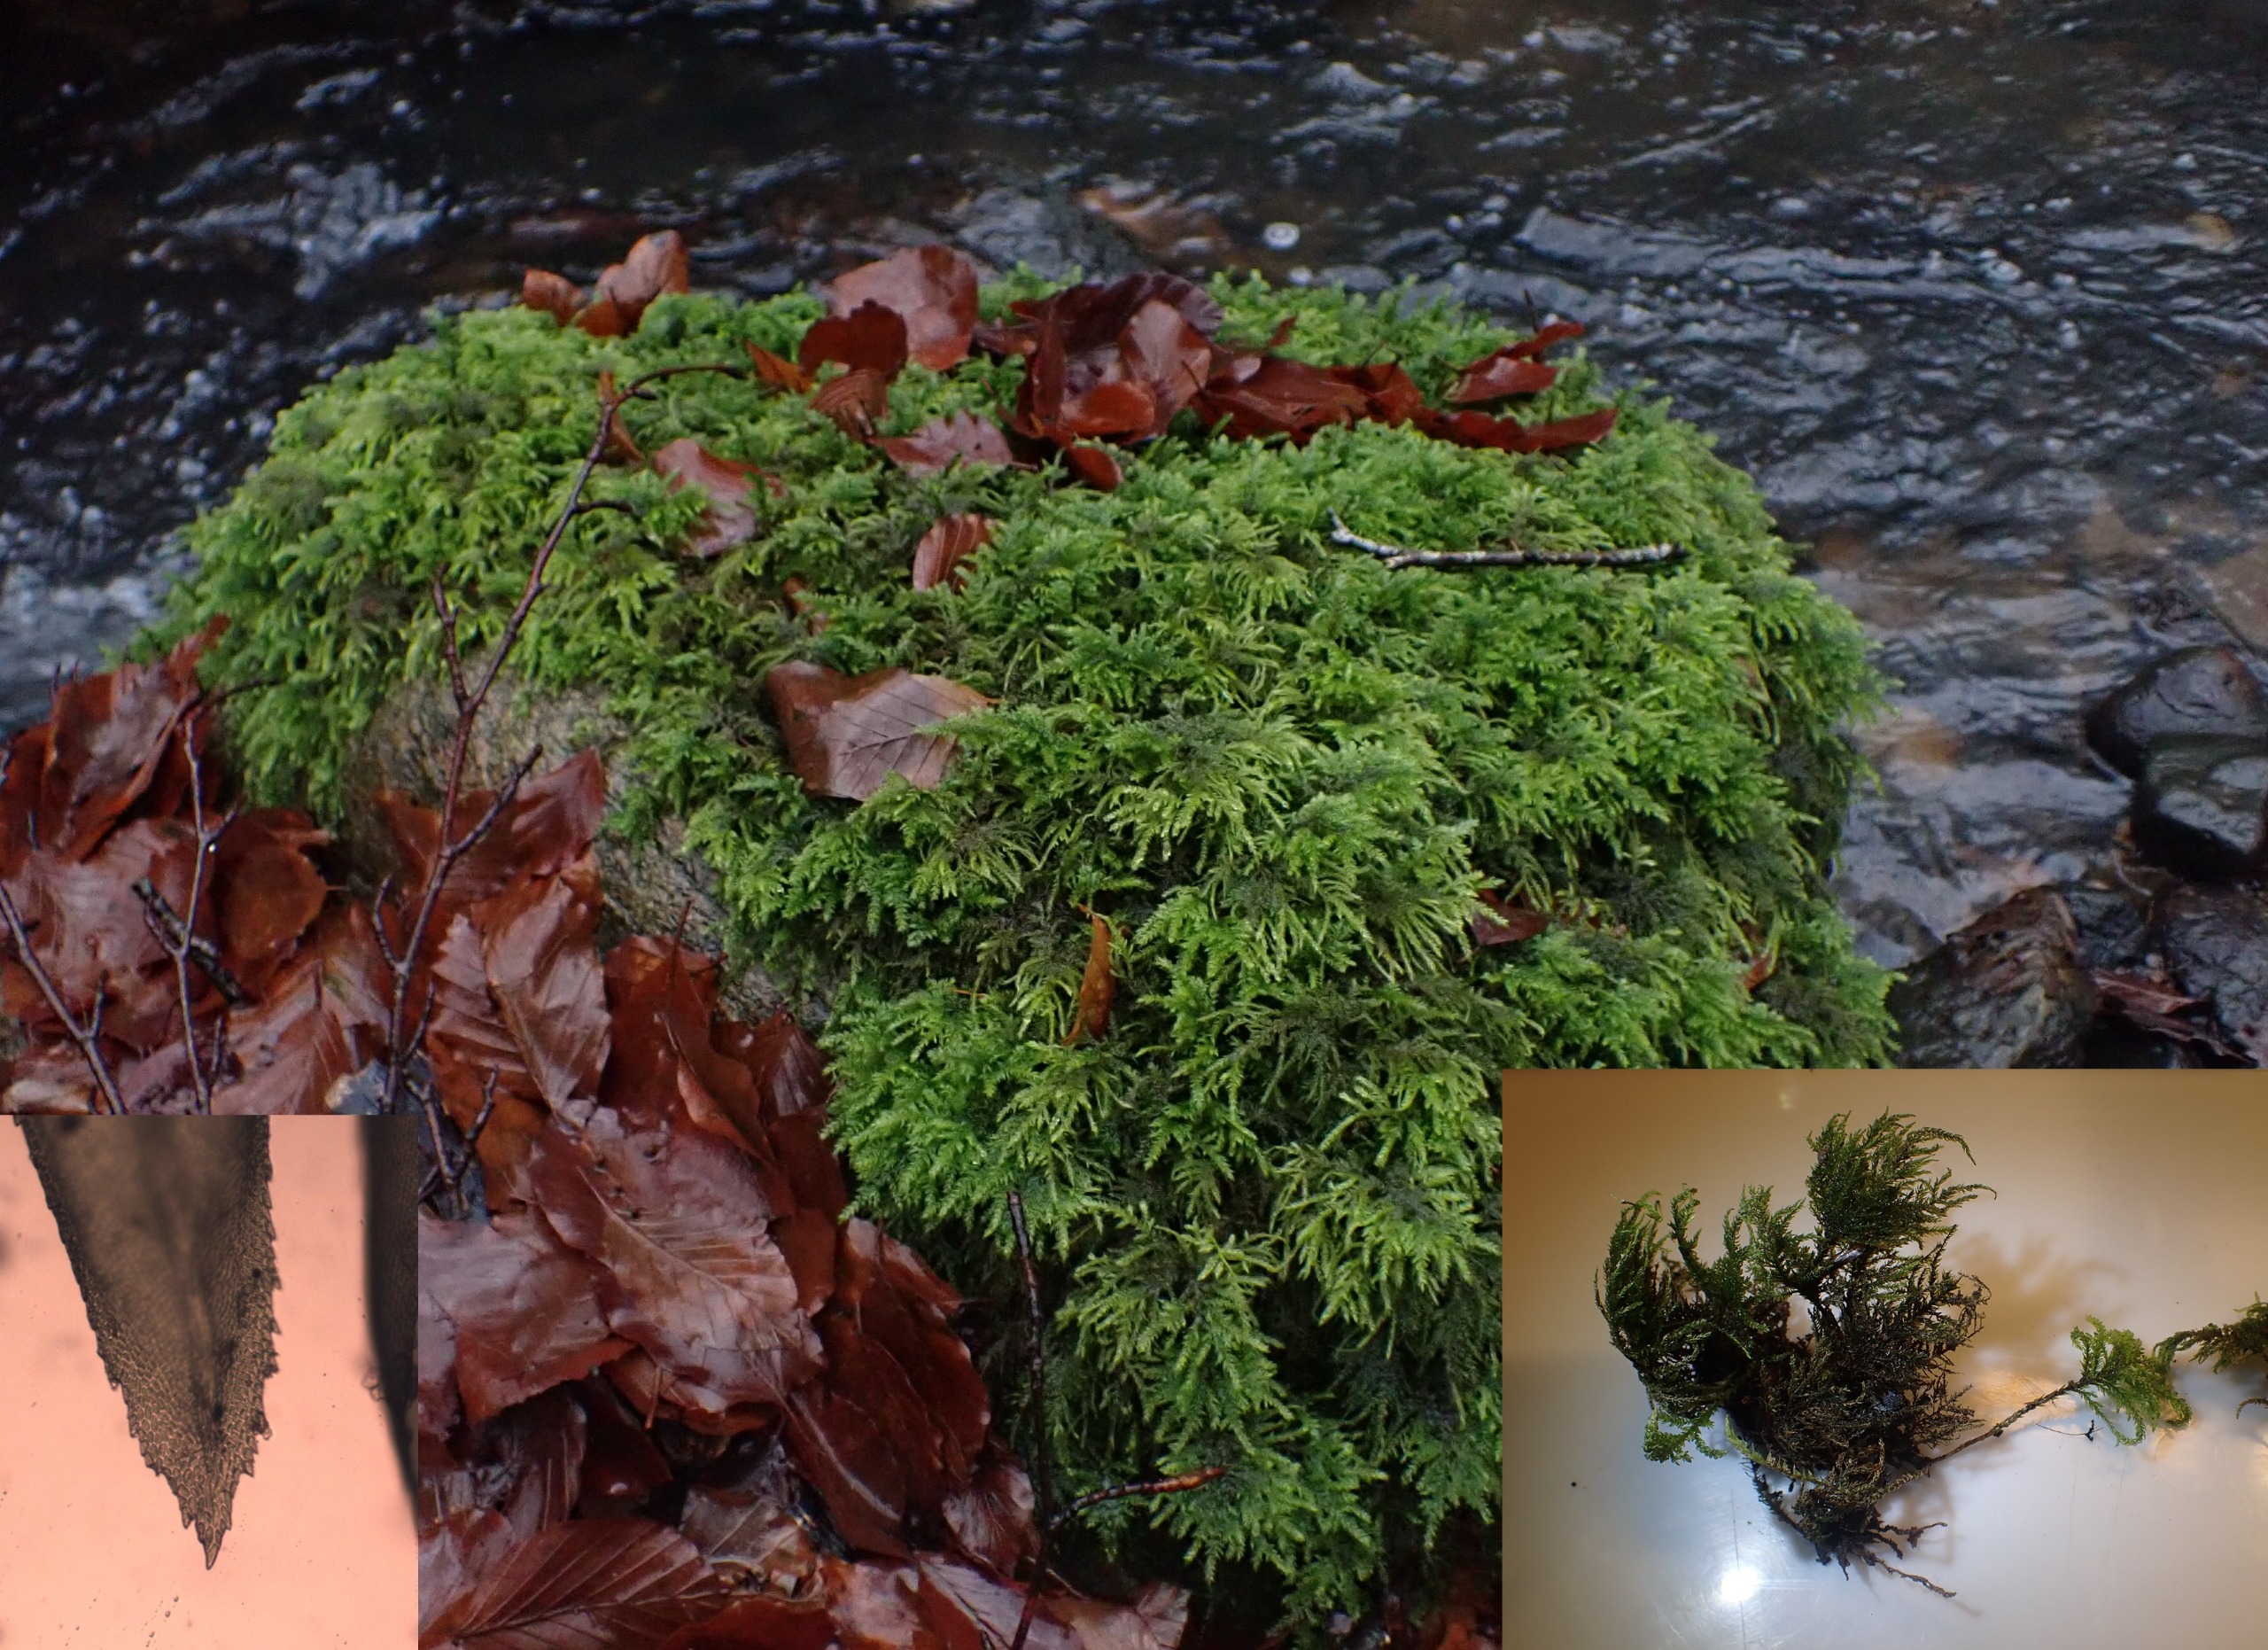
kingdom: Plantae
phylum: Bryophyta
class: Bryopsida
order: Hypnales
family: Neckeraceae
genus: Thamnobryum
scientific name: Thamnobryum alopecurum
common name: Mat bækkost
